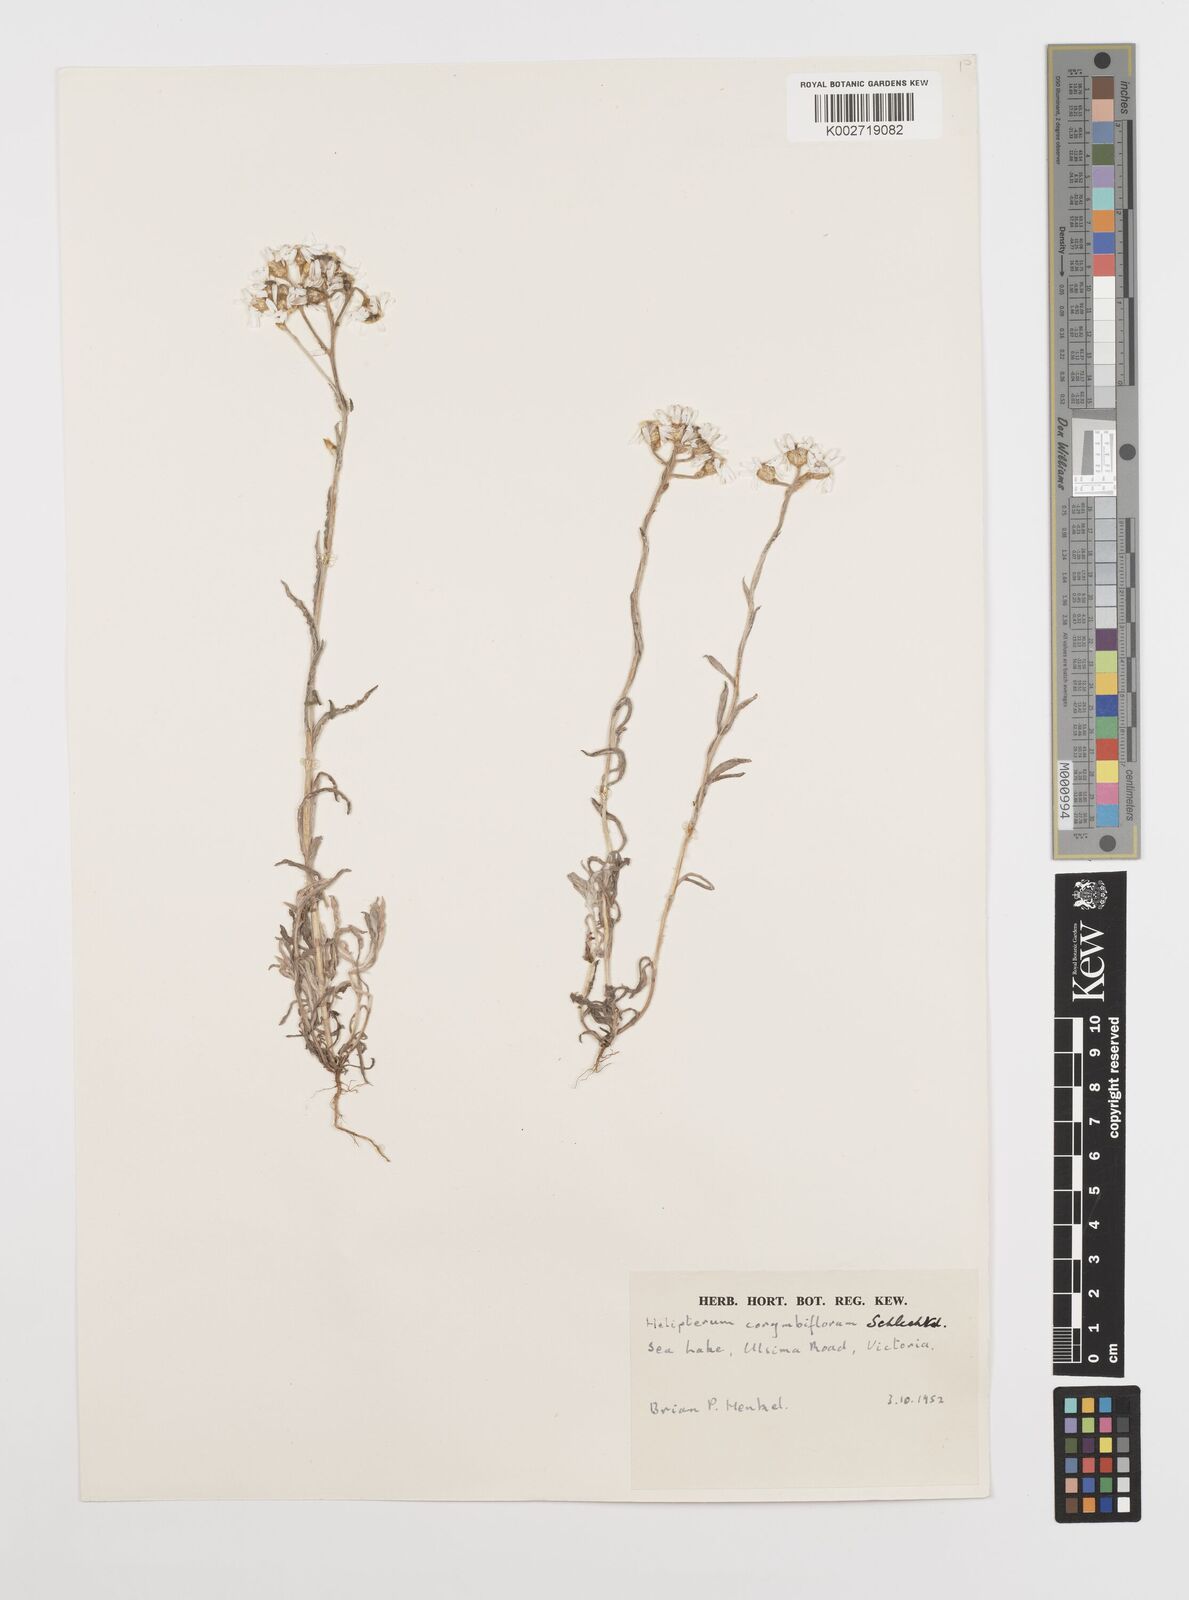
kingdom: Plantae
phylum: Tracheophyta
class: Magnoliopsida
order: Asterales
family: Asteraceae
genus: Rhodanthe
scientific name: Rhodanthe corymbiflora
